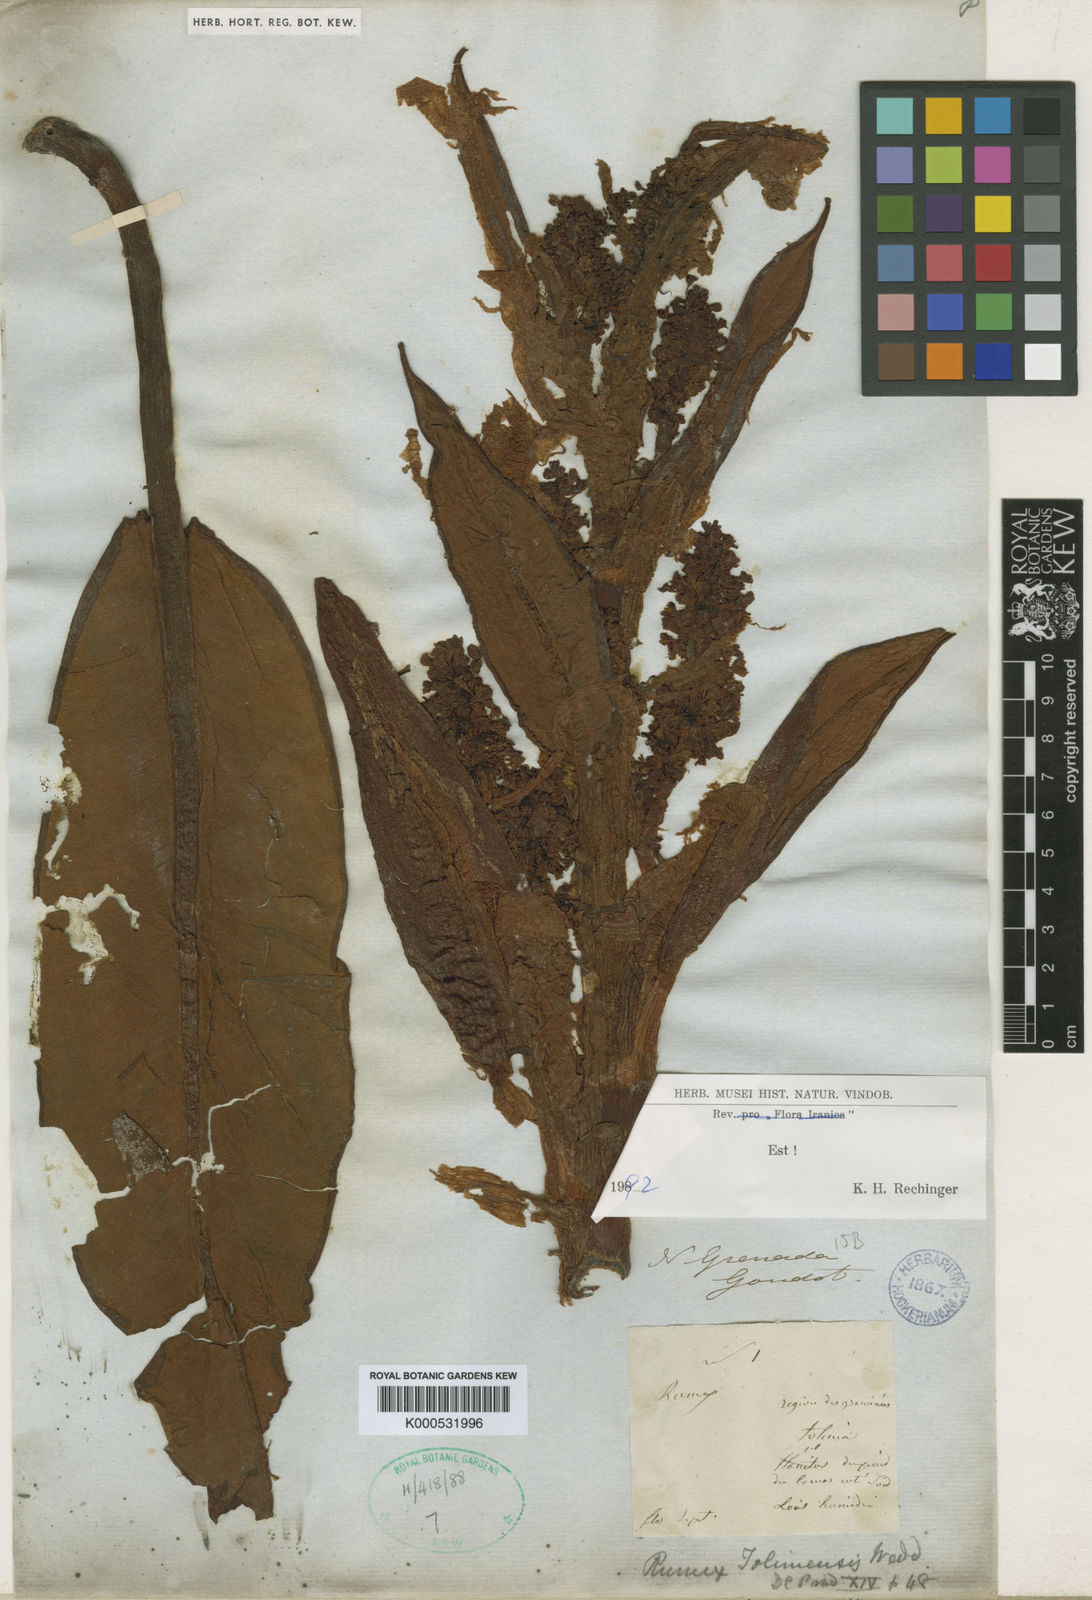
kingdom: Plantae
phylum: Tracheophyta
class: Magnoliopsida
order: Caryophyllales
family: Polygonaceae
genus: Rumex
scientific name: Rumex darwinianus
